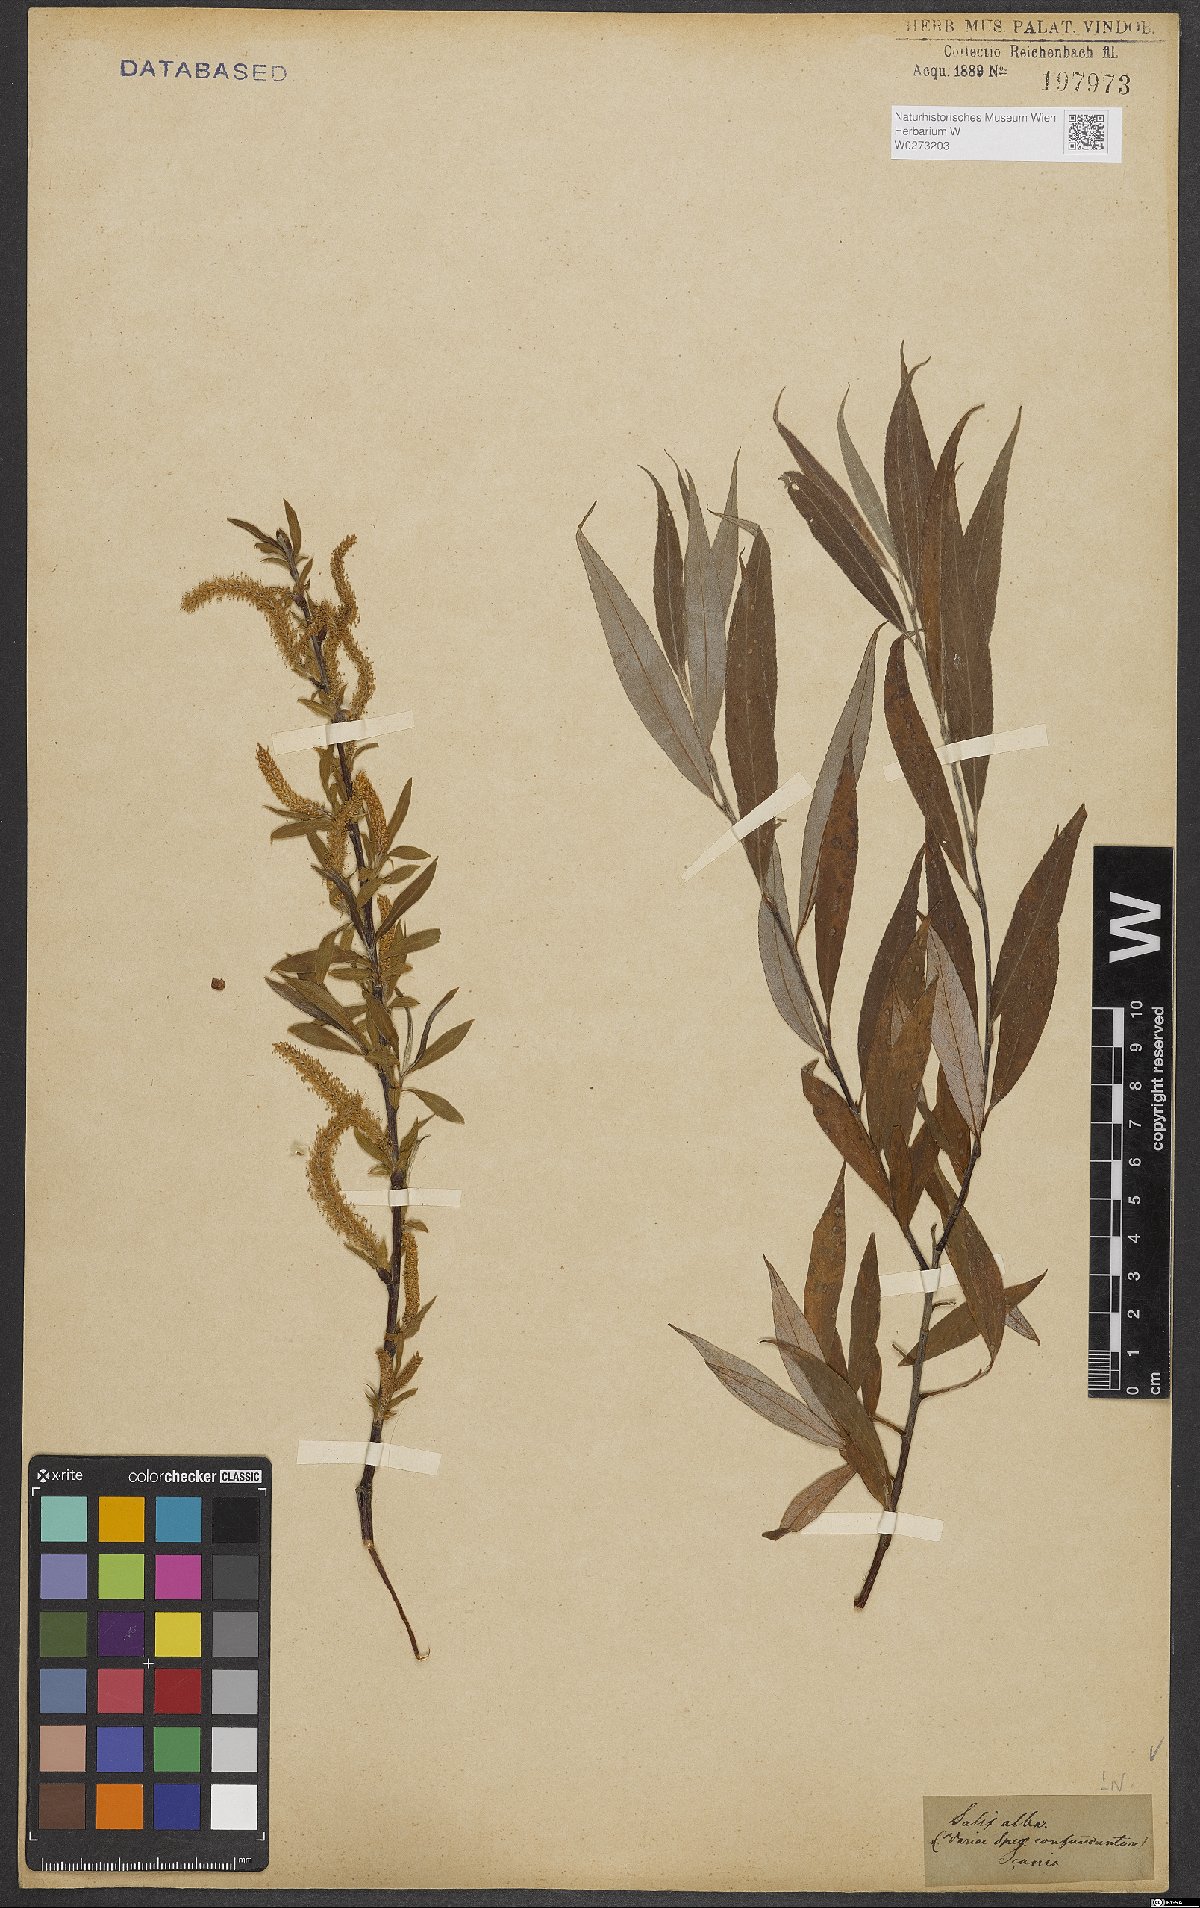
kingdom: Plantae
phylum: Tracheophyta
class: Magnoliopsida
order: Malpighiales
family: Salicaceae
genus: Salix
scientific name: Salix alba
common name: White willow
